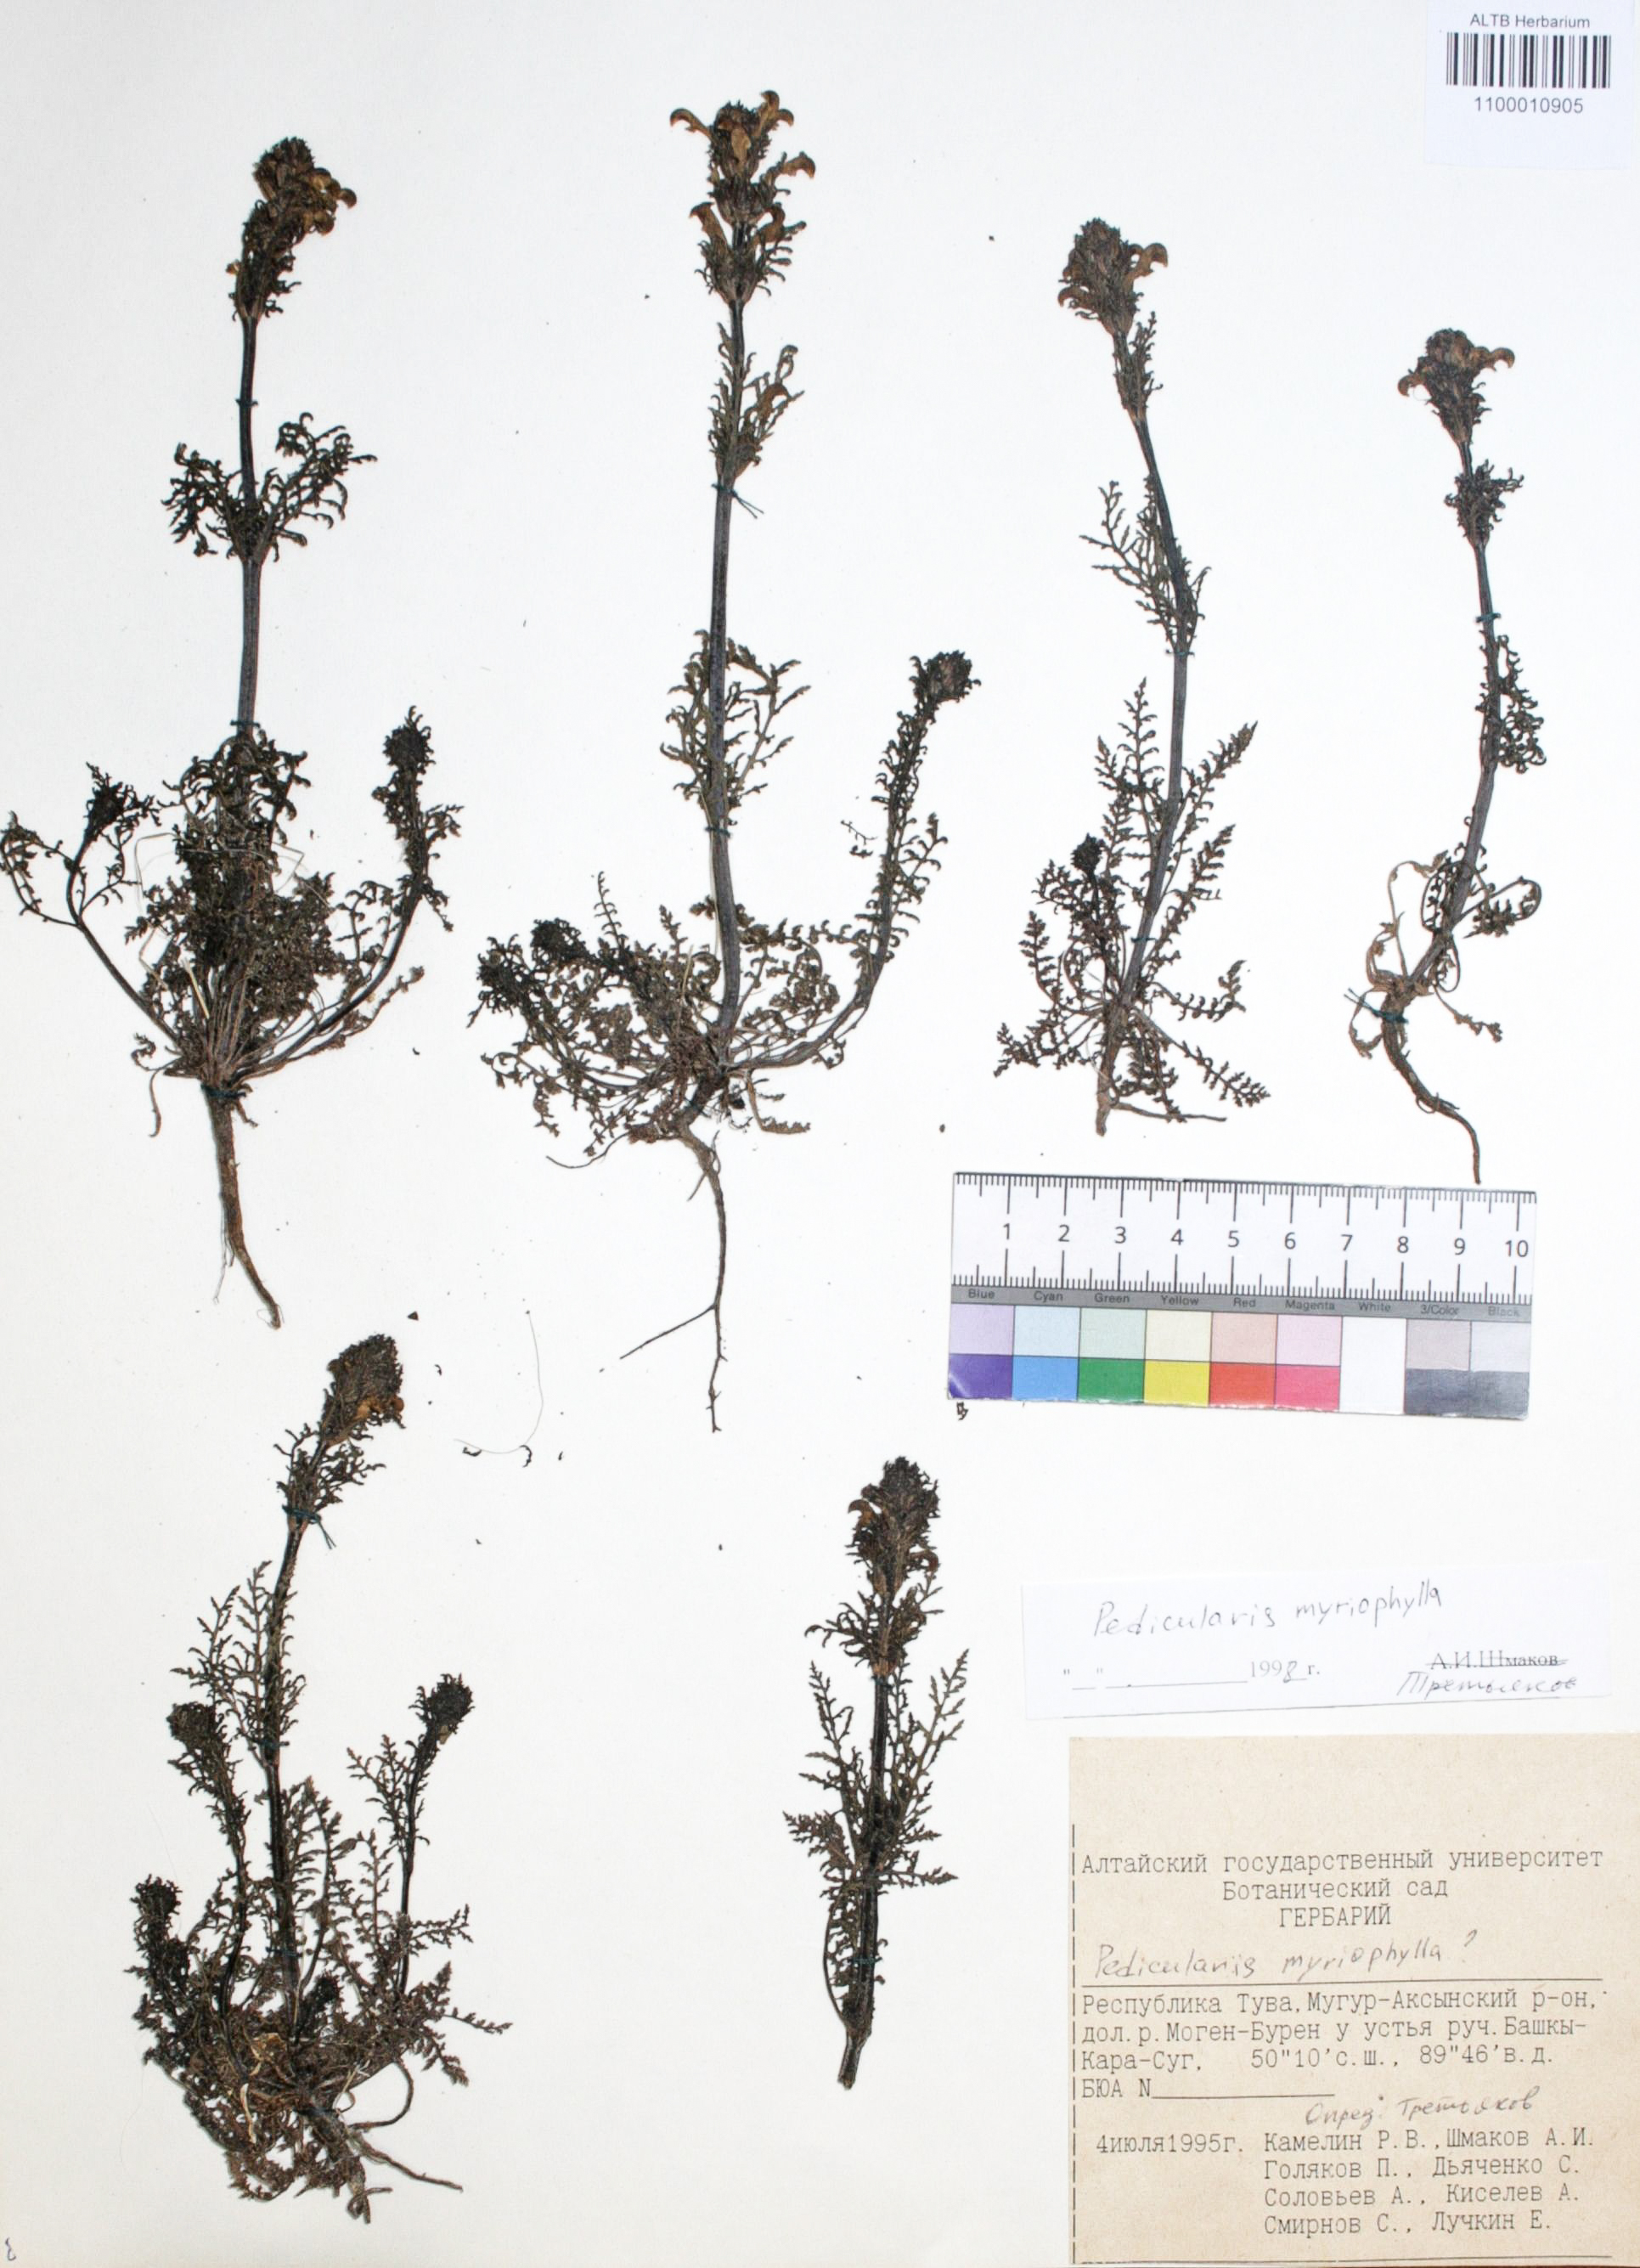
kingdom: Plantae
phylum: Tracheophyta
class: Magnoliopsida
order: Lamiales
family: Orobanchaceae
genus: Pedicularis
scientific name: Pedicularis myriophylla
